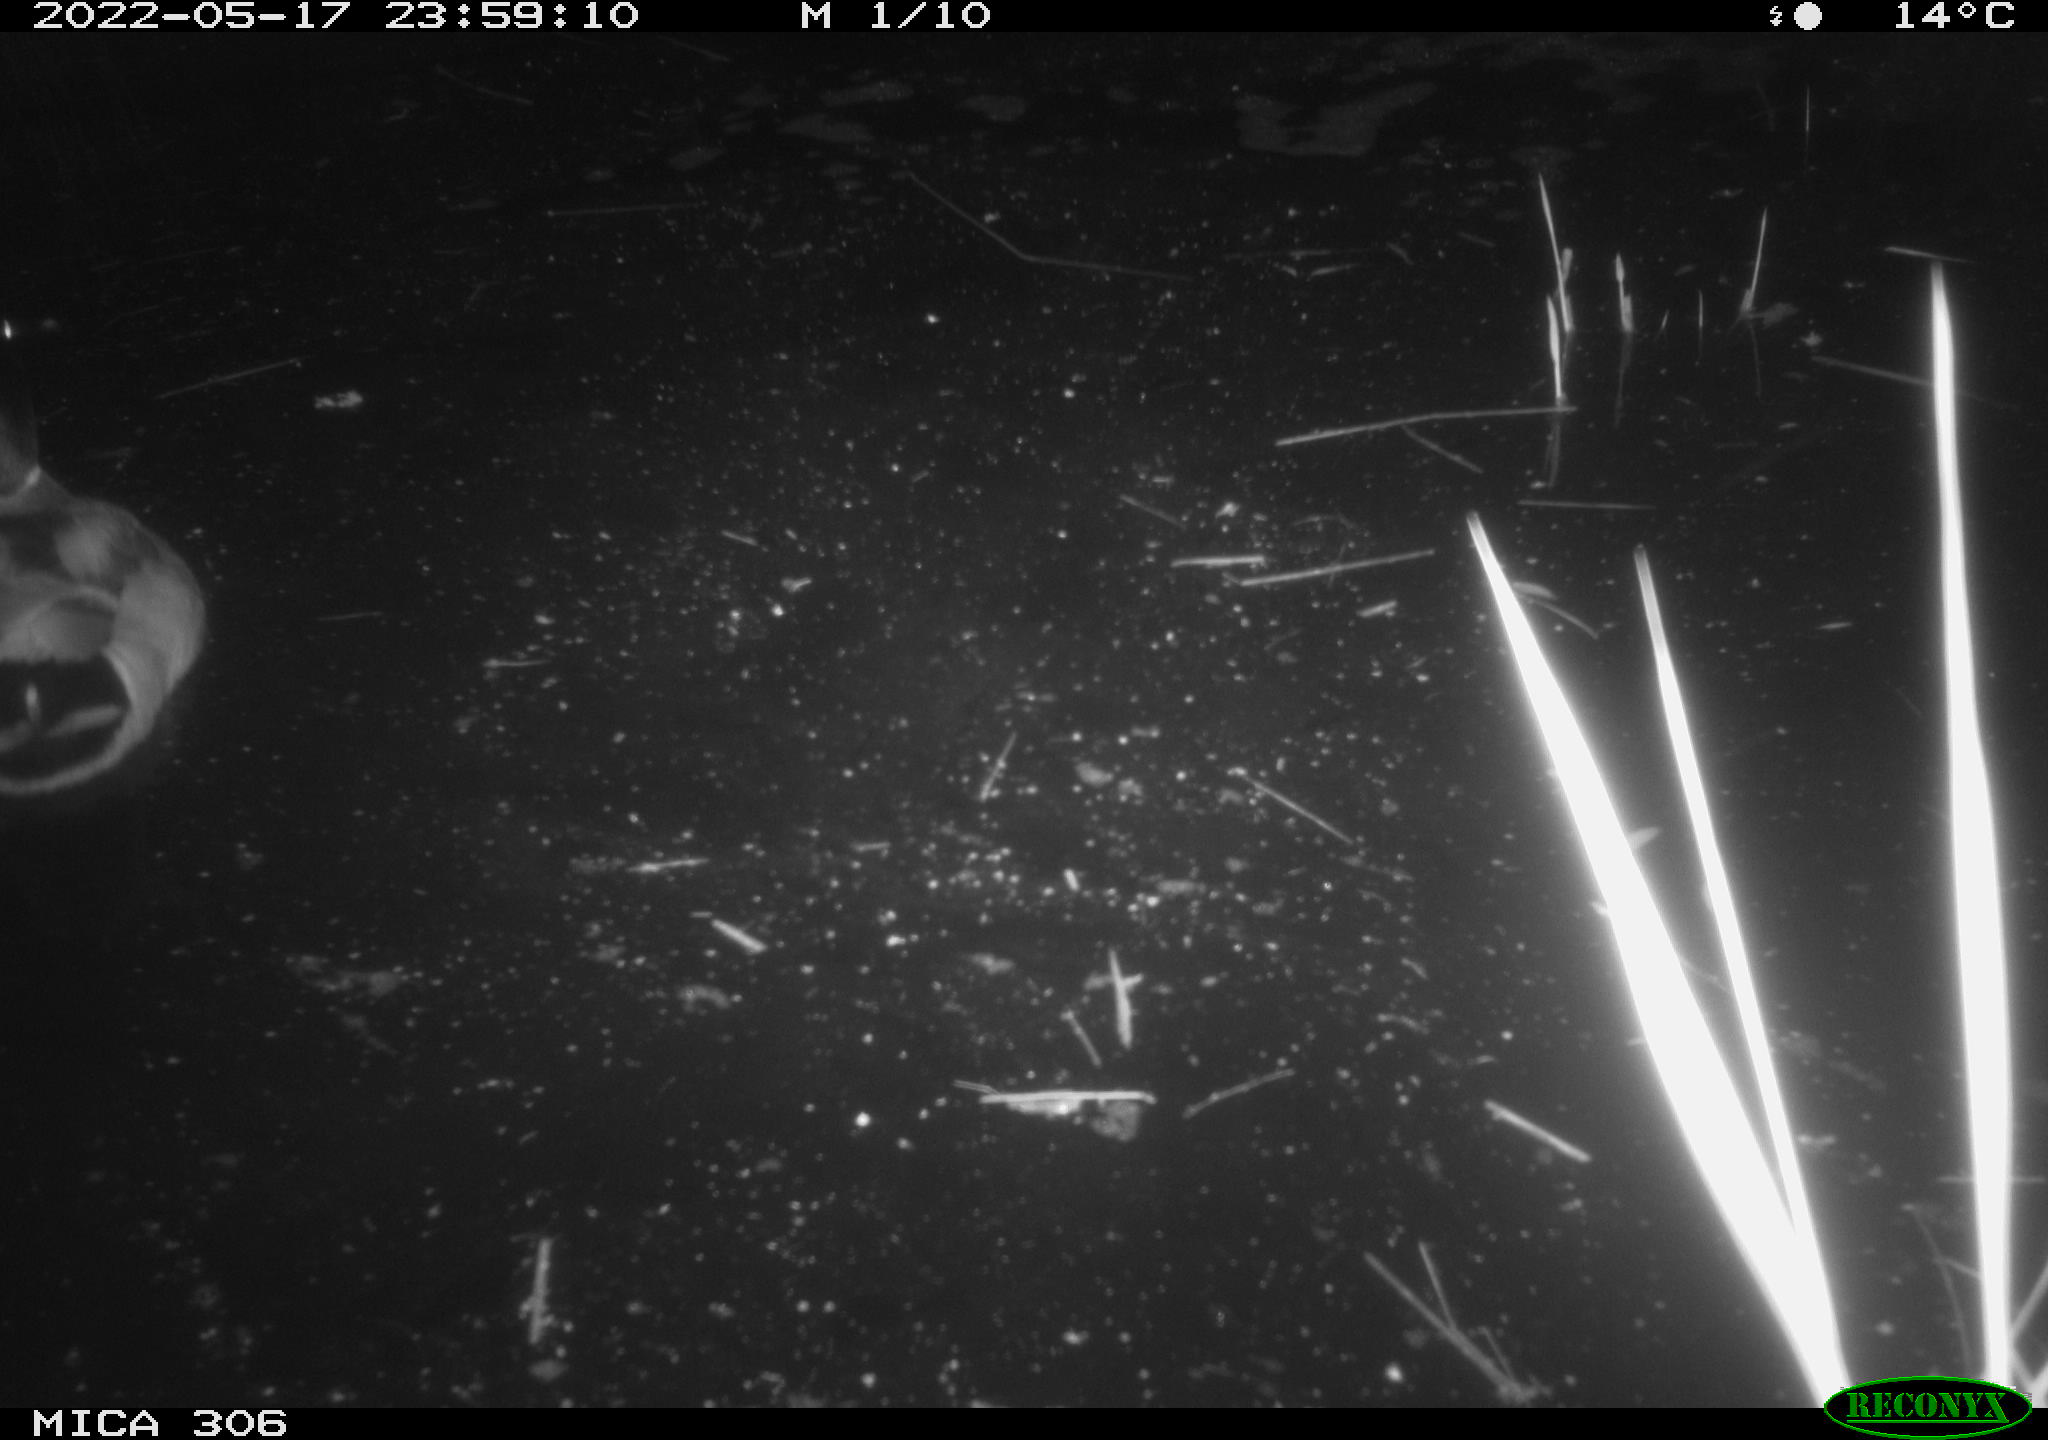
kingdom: Animalia
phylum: Chordata
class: Aves
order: Anseriformes
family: Anatidae
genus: Anas
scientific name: Anas platyrhynchos
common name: Mallard
